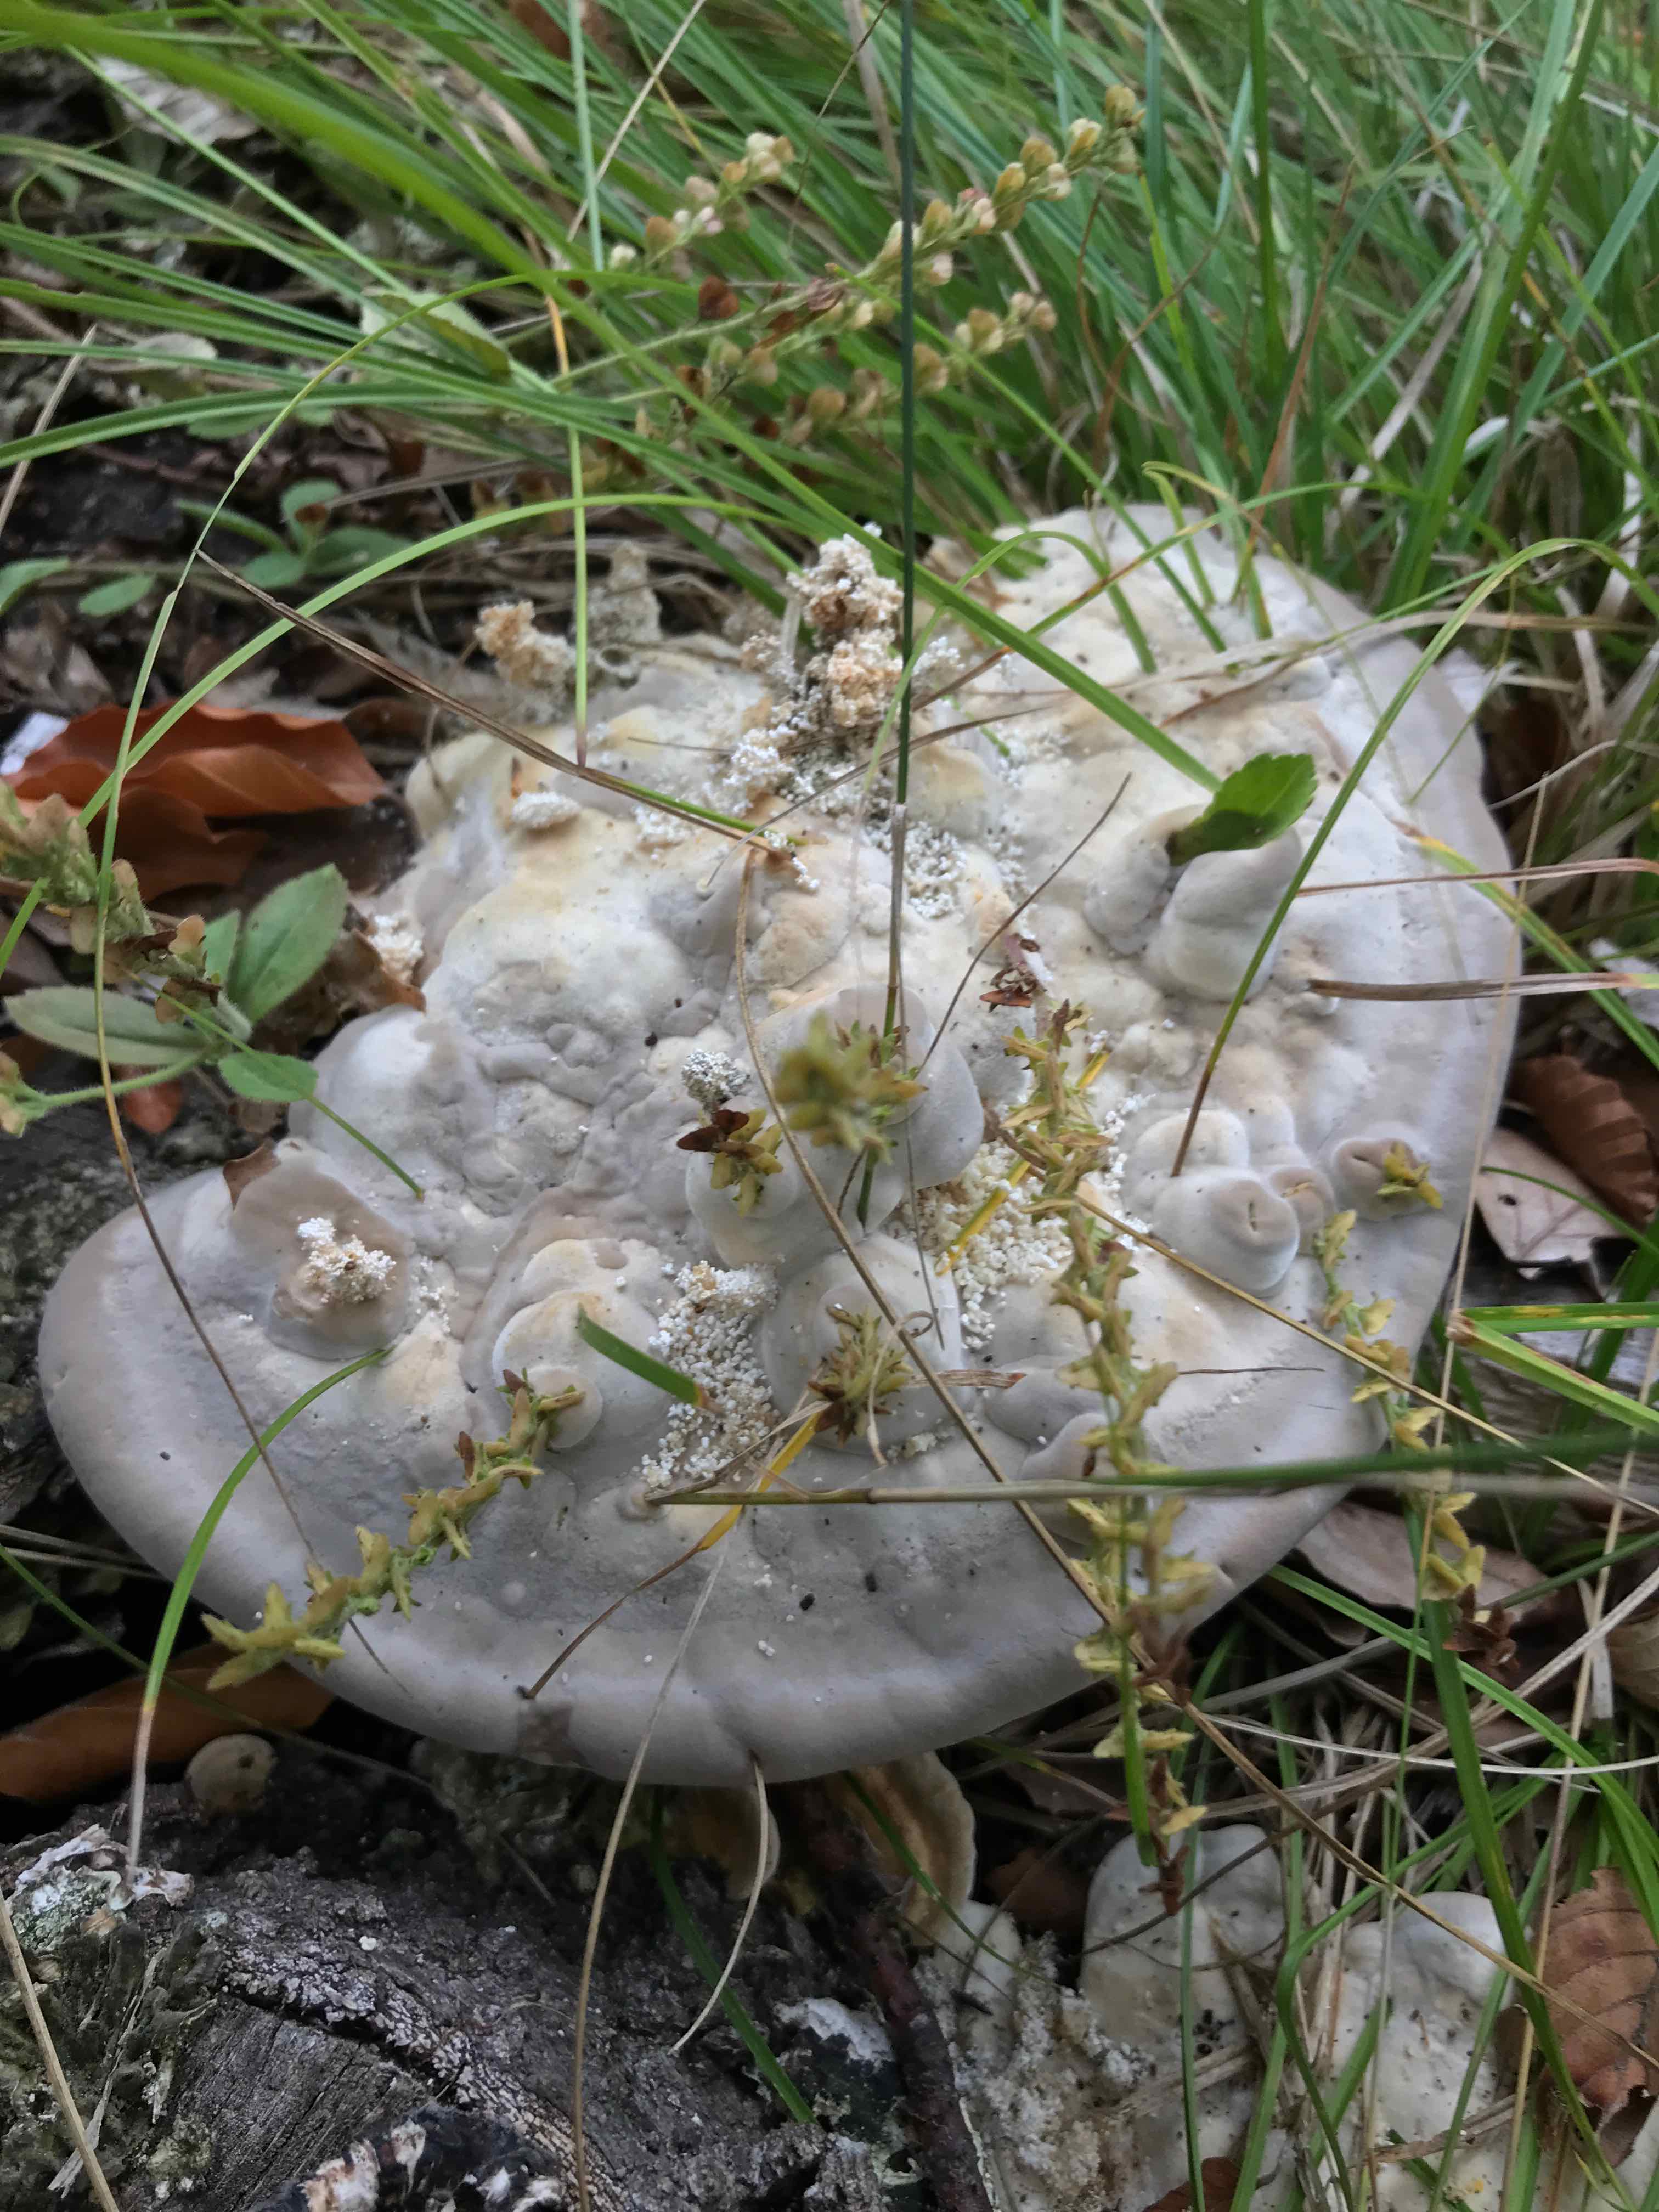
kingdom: Fungi
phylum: Basidiomycota
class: Agaricomycetes
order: Polyporales
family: Polyporaceae
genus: Trametes
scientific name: Trametes gibbosa
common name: puklet læderporesvamp
